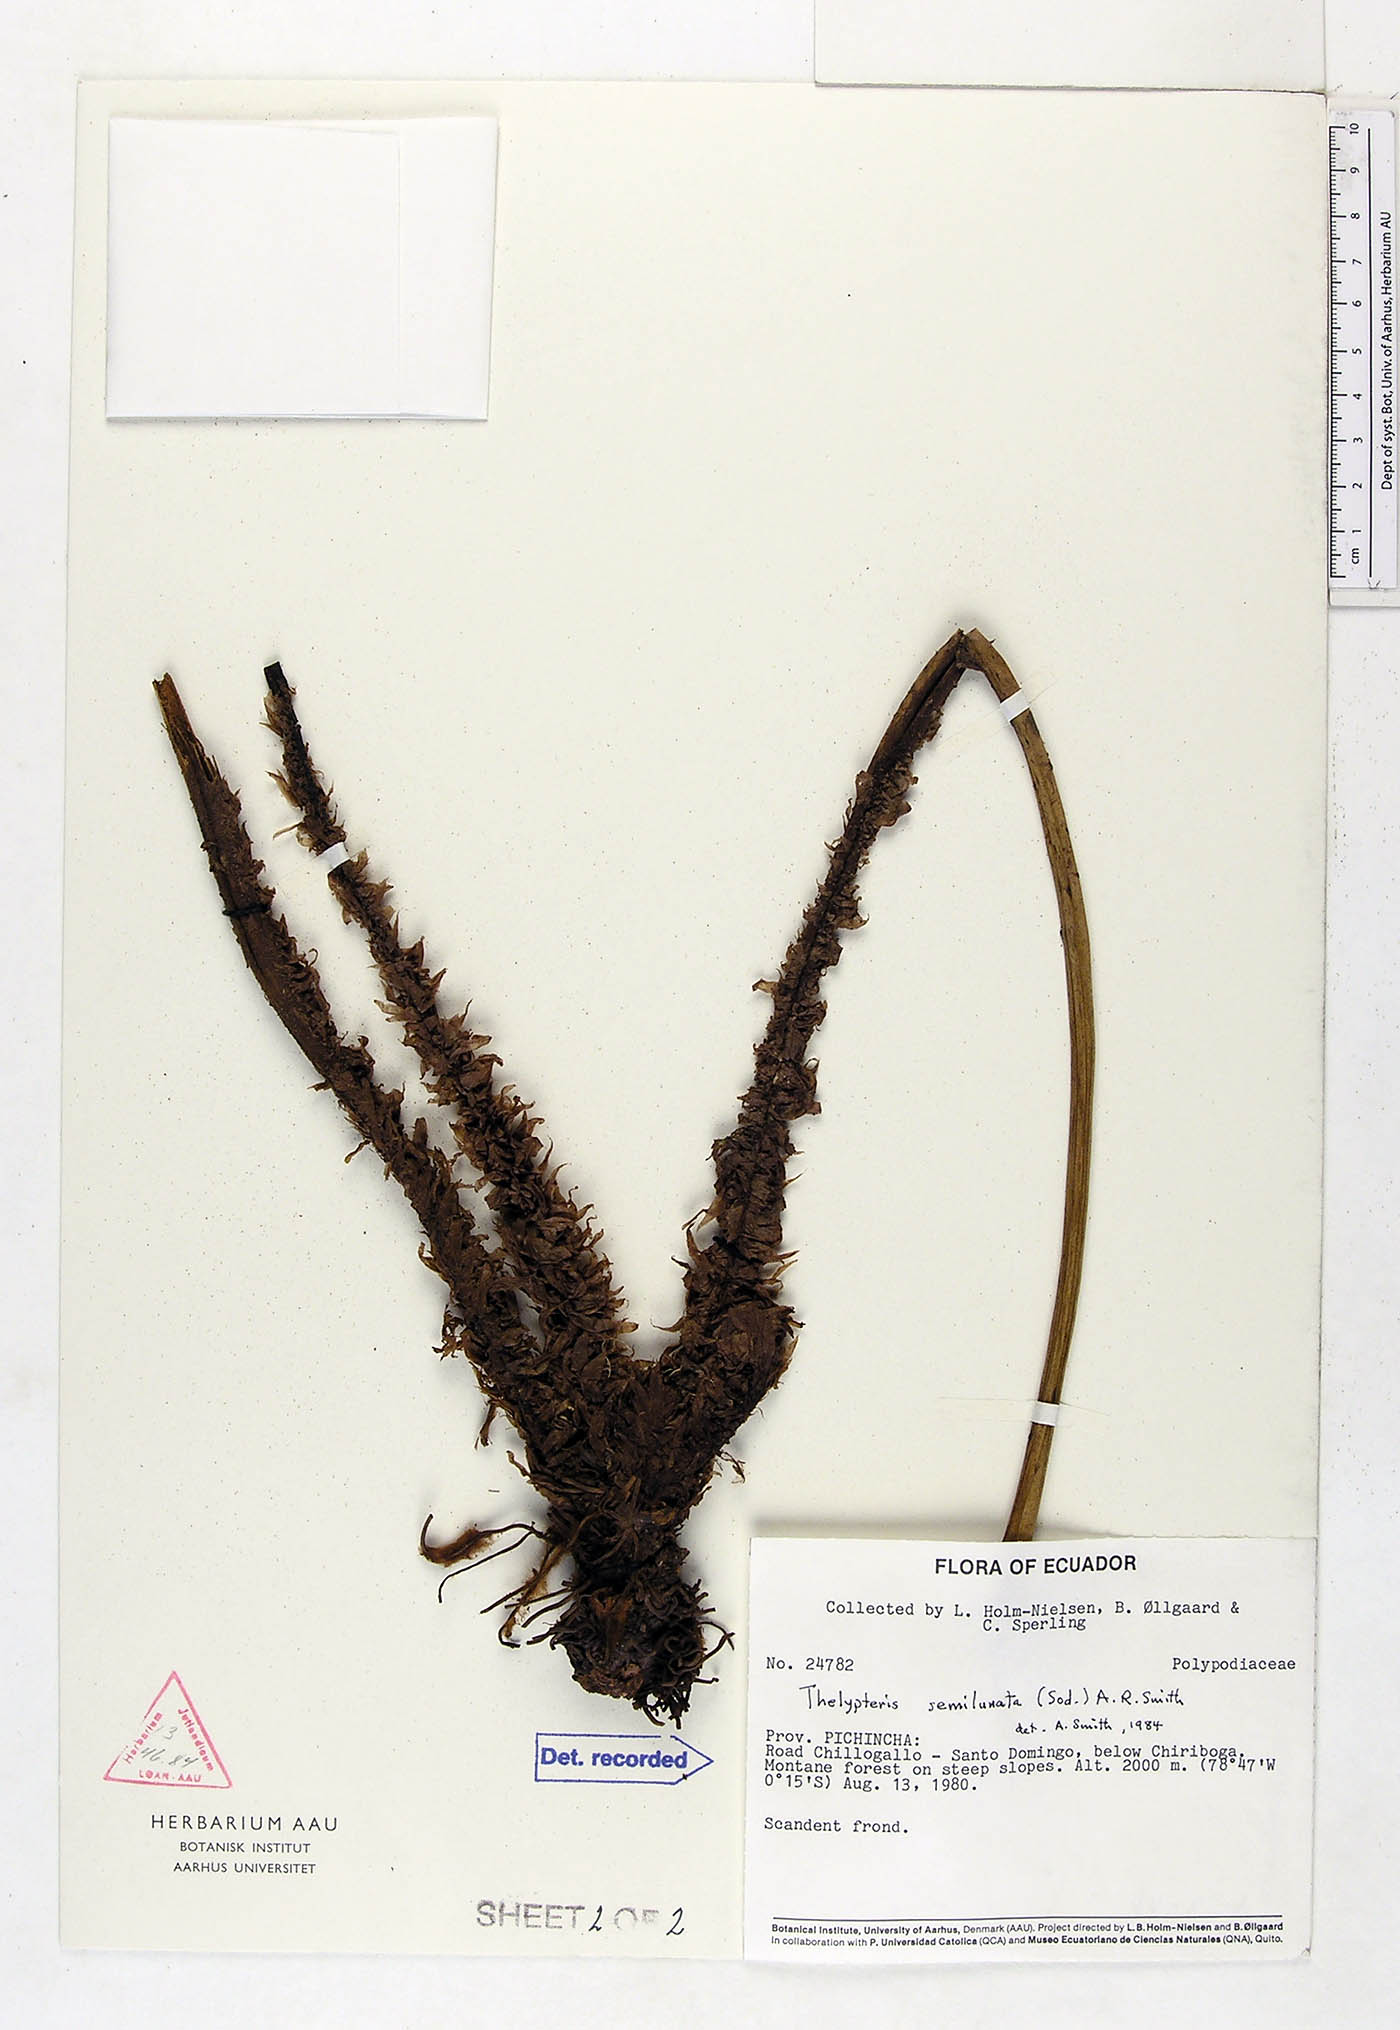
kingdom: Plantae
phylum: Tracheophyta
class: Polypodiopsida
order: Polypodiales
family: Thelypteridaceae
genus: Amauropelta
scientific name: Amauropelta semilunata
